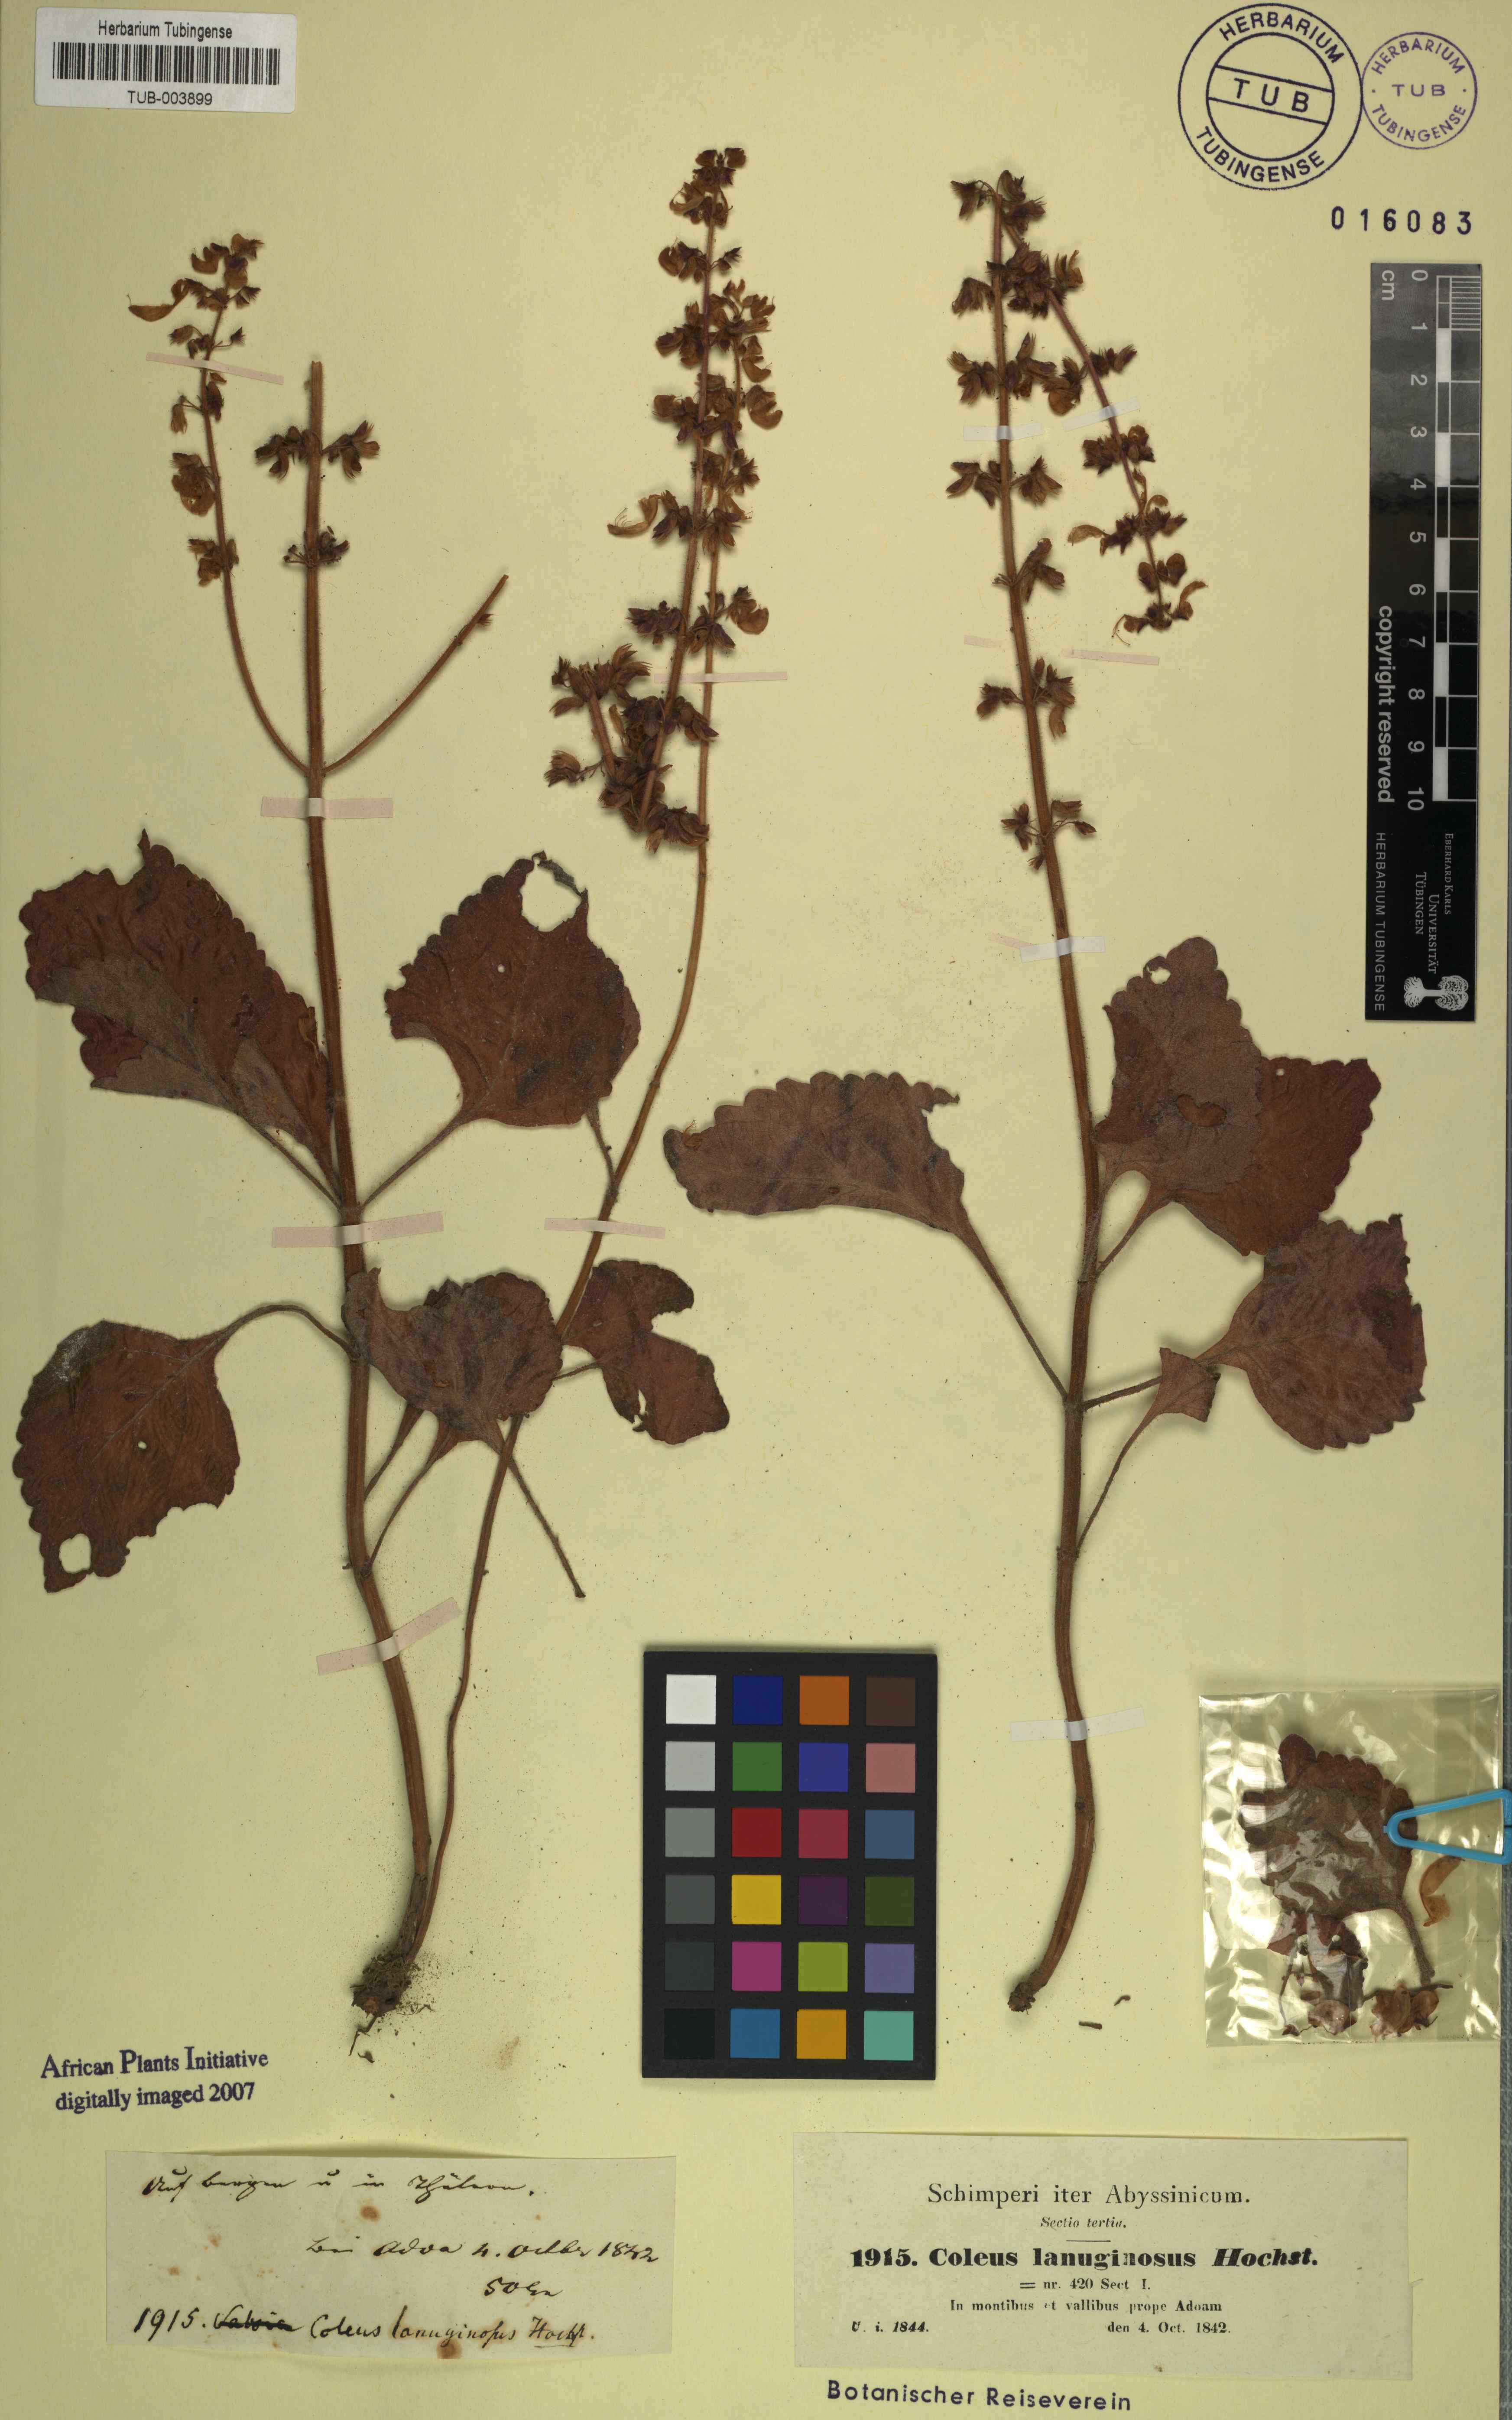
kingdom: Plantae
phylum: Tracheophyta
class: Magnoliopsida
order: Lamiales
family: Lamiaceae
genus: Coleus
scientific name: Coleus lanuginosus
